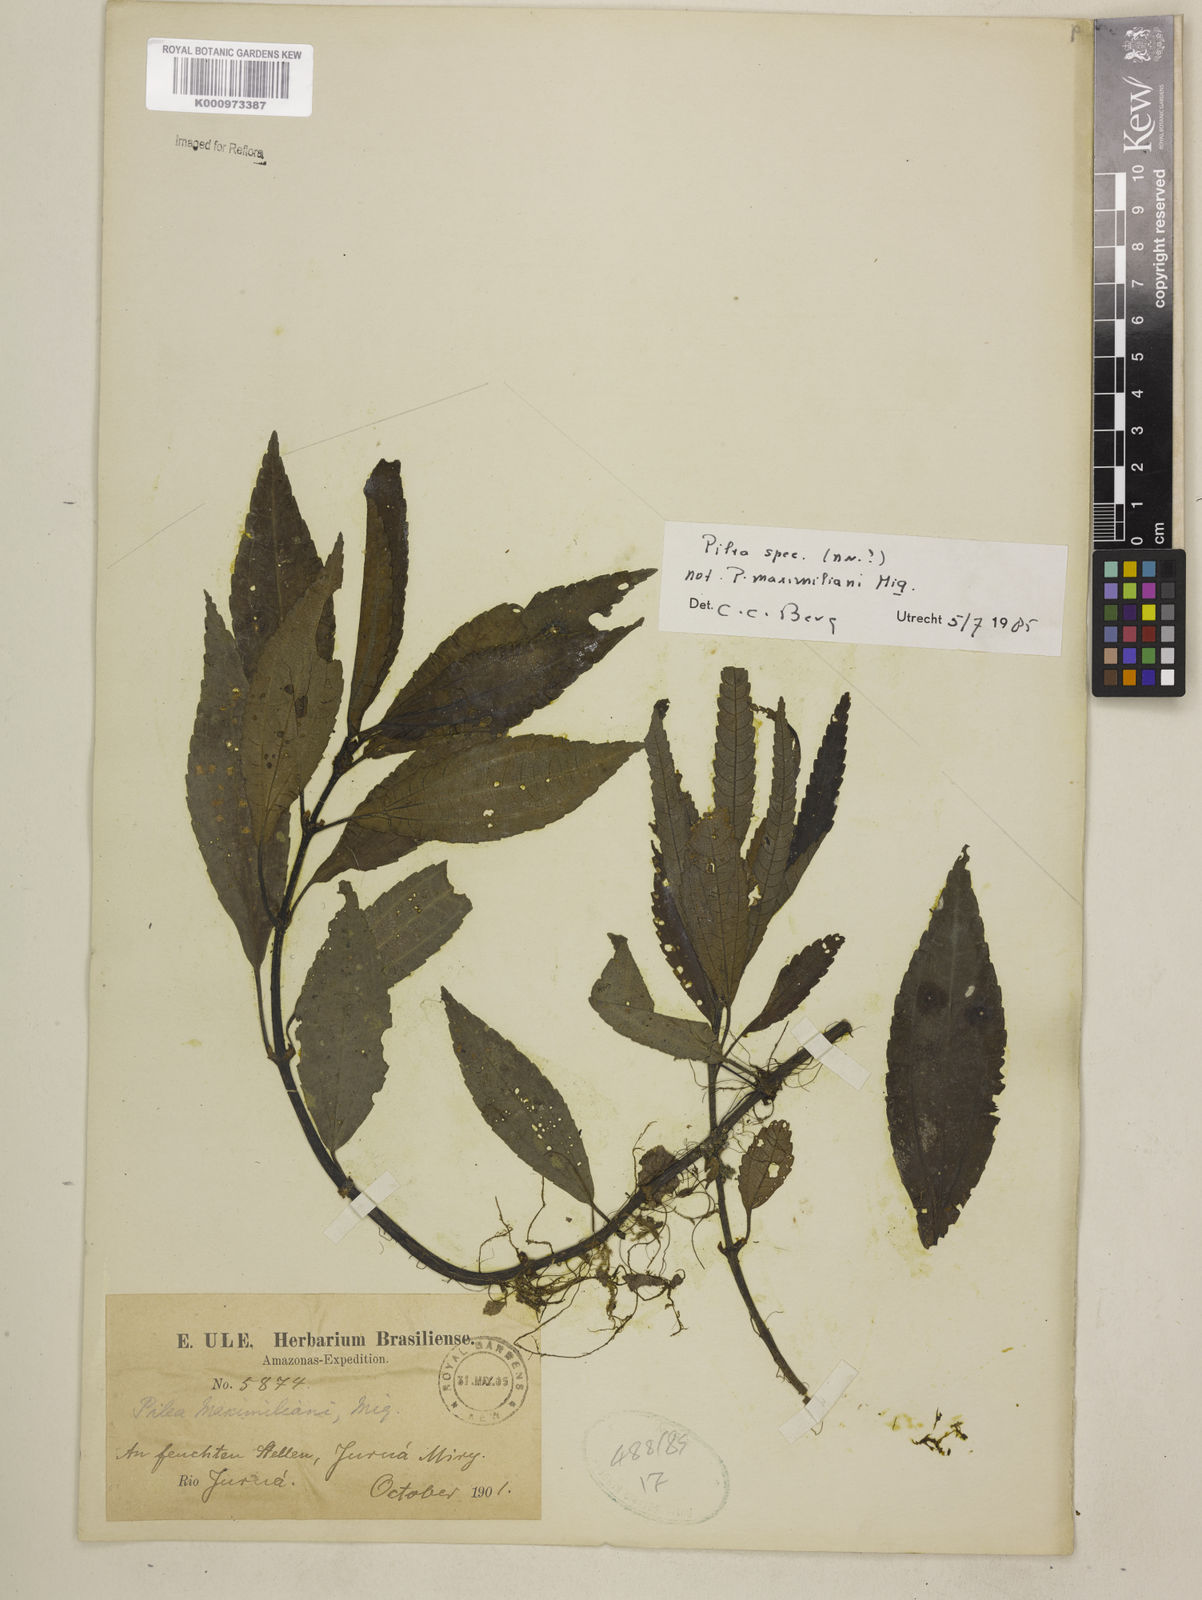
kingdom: Plantae
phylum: Tracheophyta
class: Magnoliopsida
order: Rosales
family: Urticaceae
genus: Pilea
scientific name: Pilea
